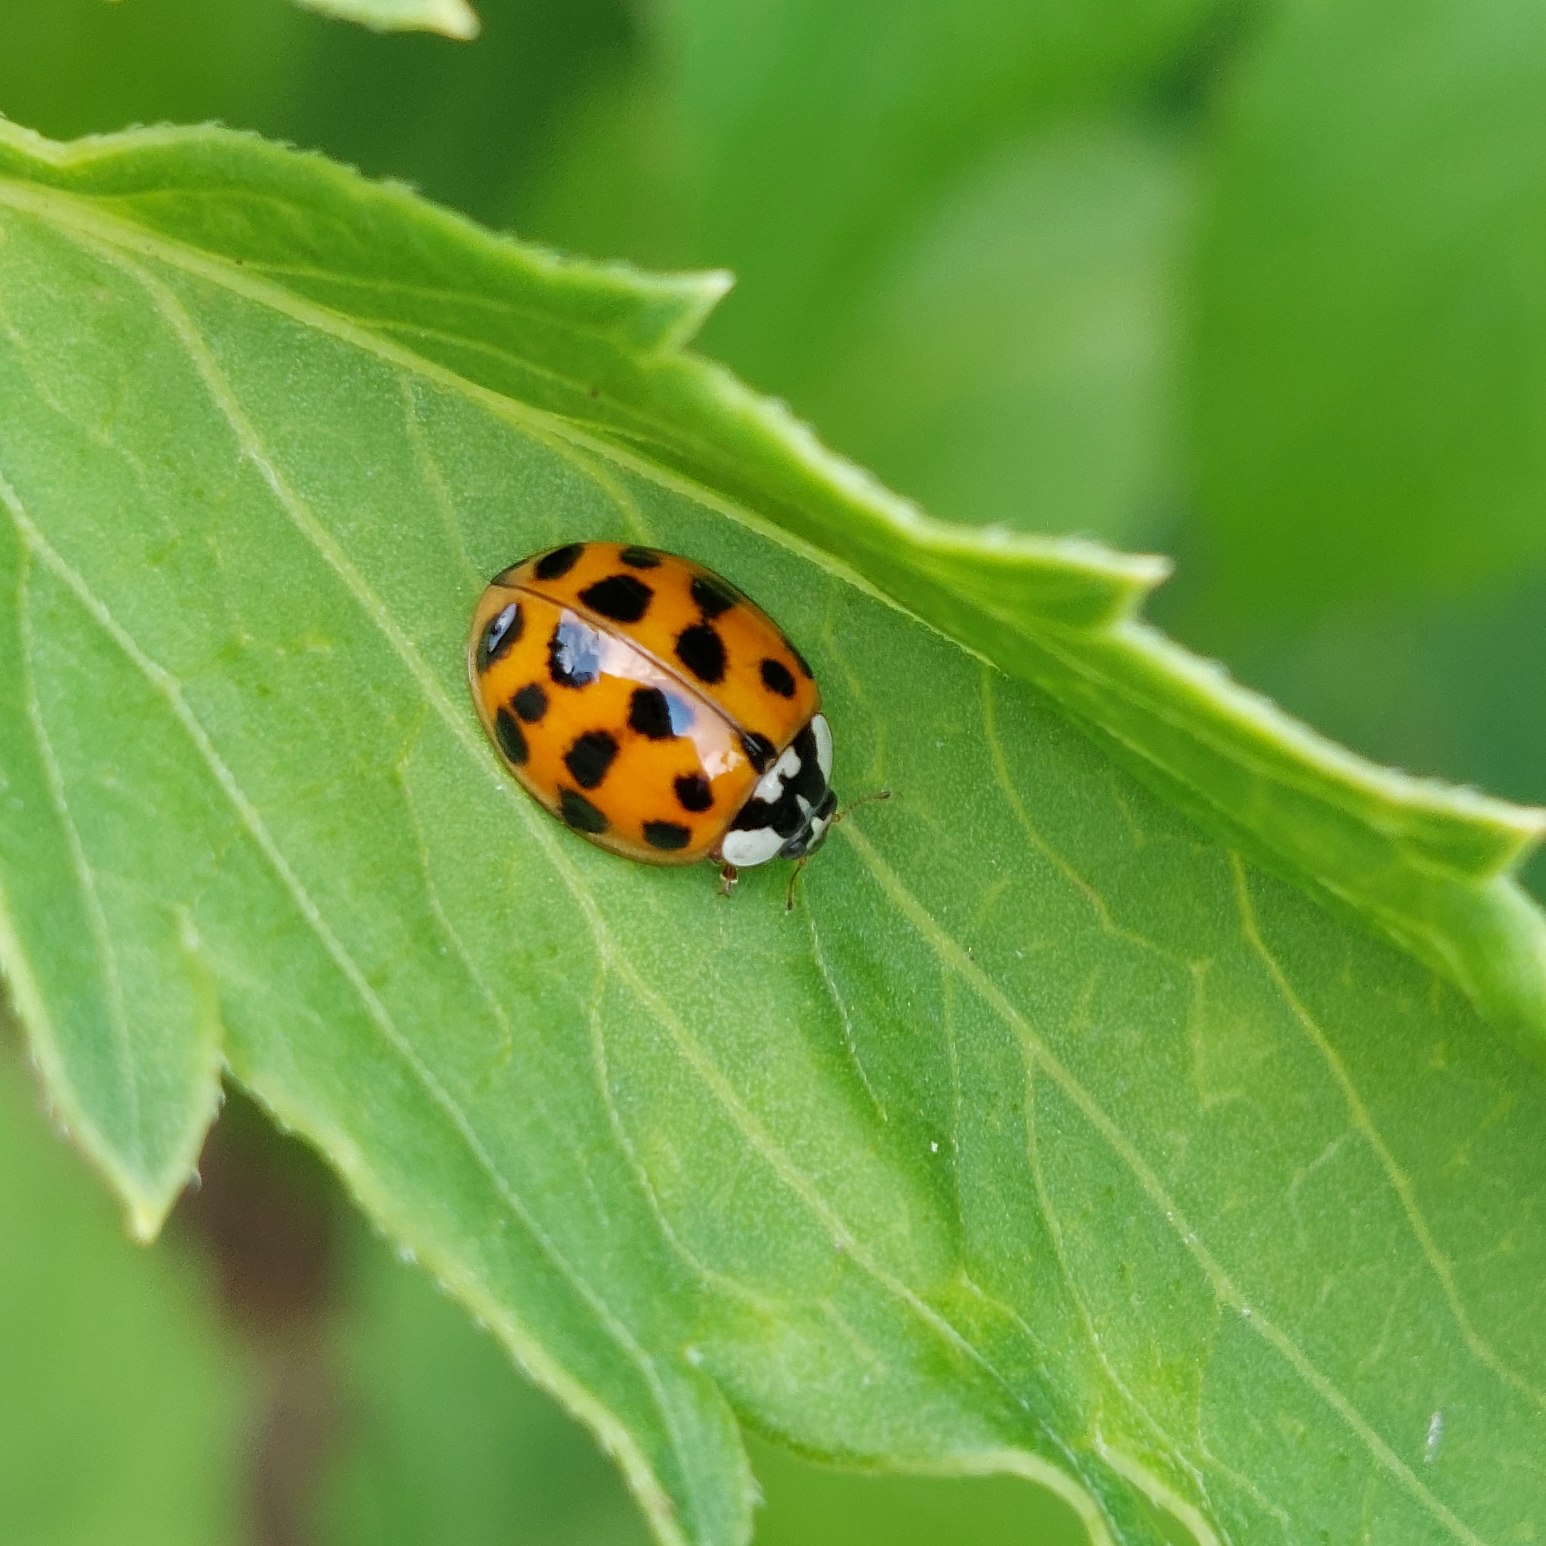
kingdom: Animalia
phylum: Arthropoda
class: Insecta
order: Coleoptera
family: Coccinellidae
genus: Harmonia
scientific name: Harmonia axyridis
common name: Harlekinmariehøne
